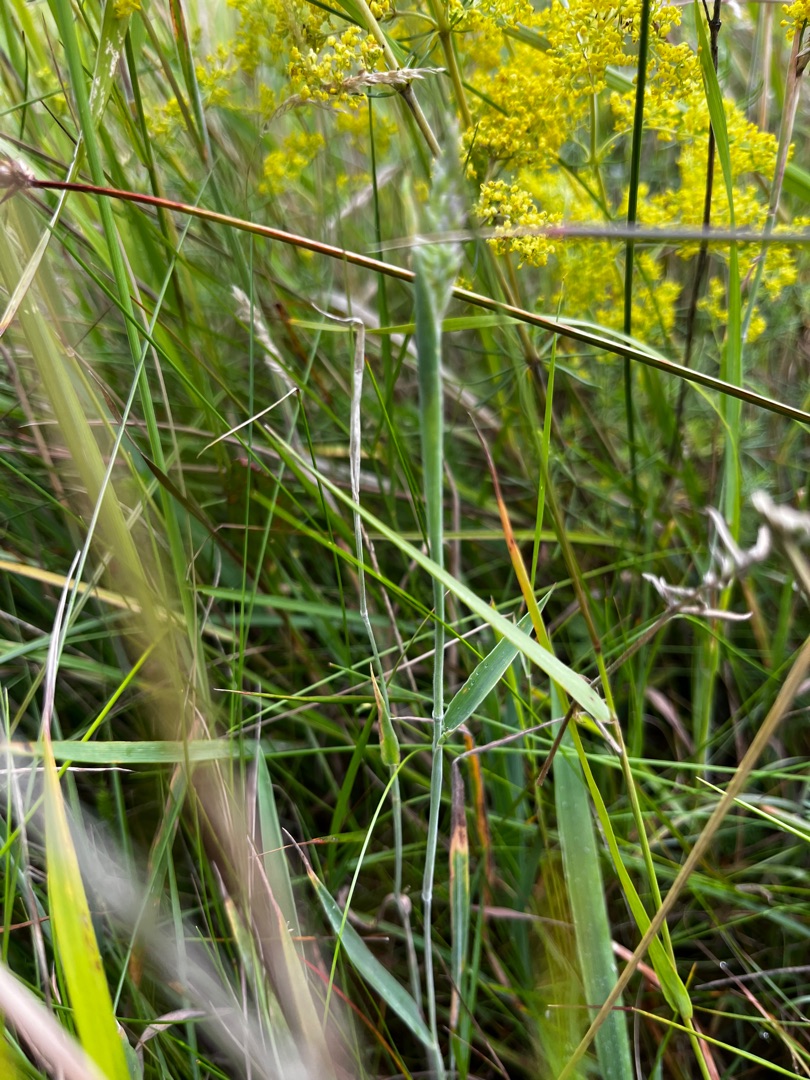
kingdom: Plantae
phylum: Tracheophyta
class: Liliopsida
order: Poales
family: Poaceae
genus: Holcus
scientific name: Holcus lanatus
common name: Fløjlsgræs
